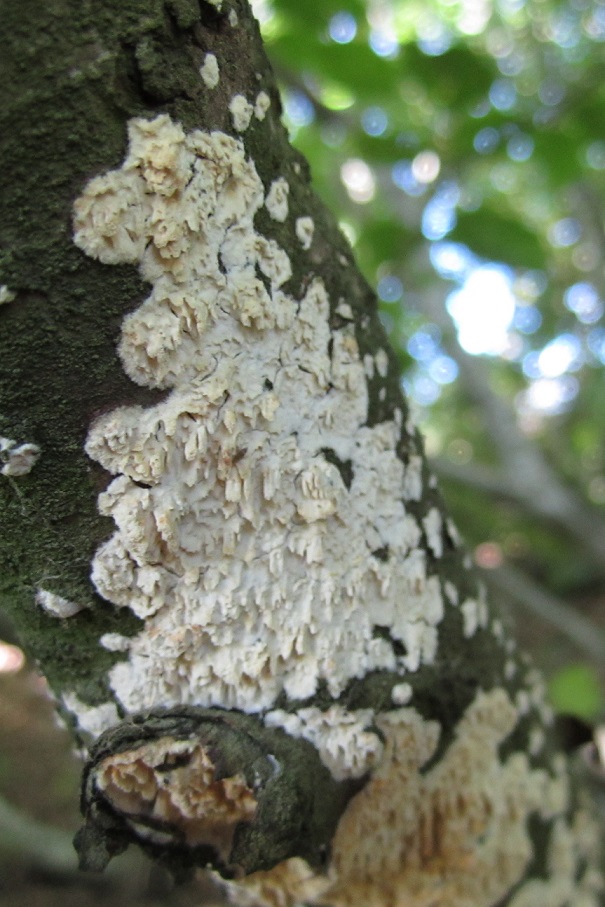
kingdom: Fungi
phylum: Basidiomycota
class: Agaricomycetes
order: Hymenochaetales
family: Schizoporaceae
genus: Xylodon
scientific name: Xylodon radula
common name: grovtandet kalkskind
